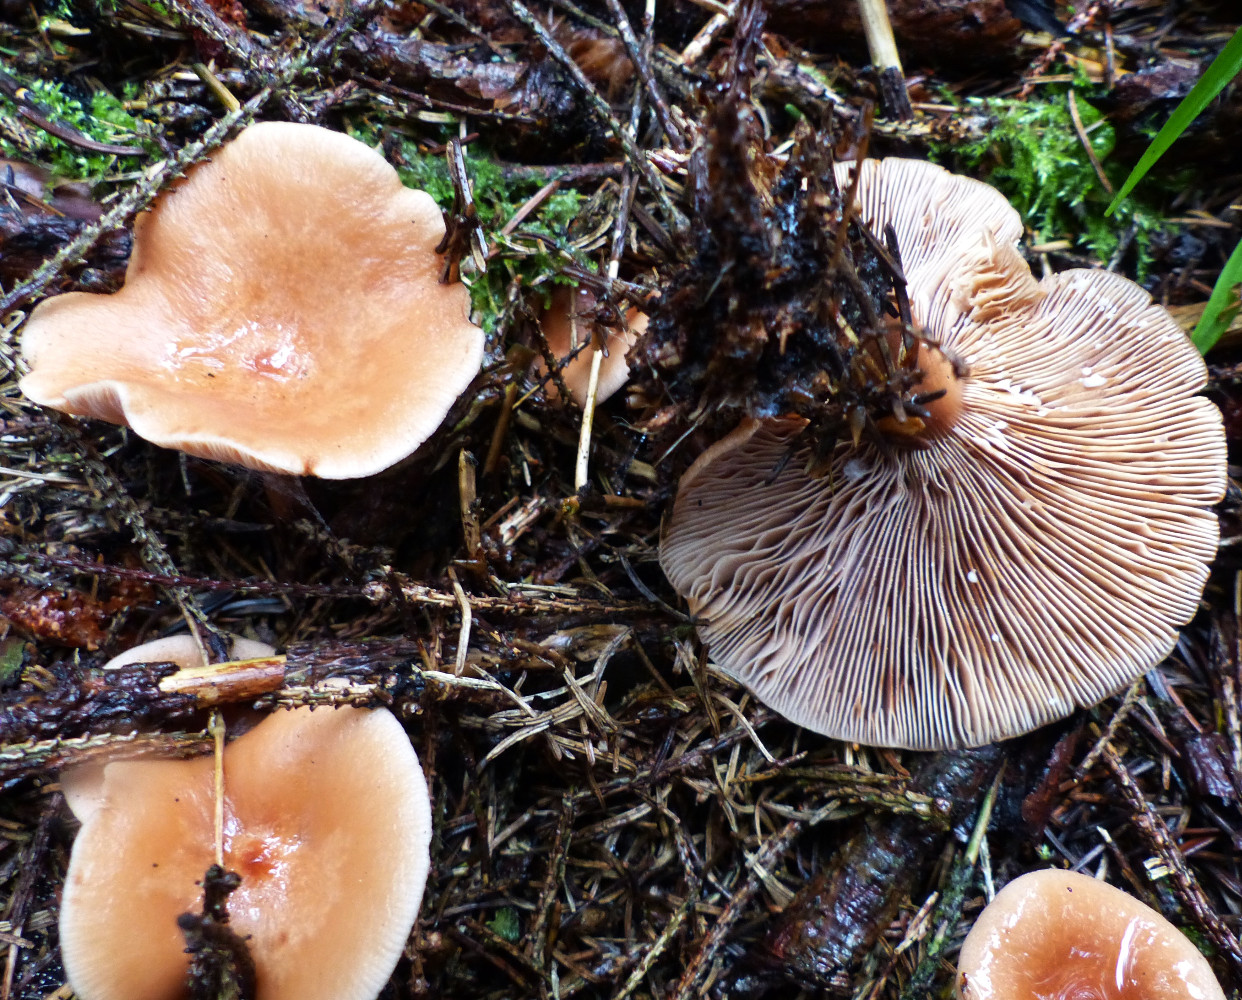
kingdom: Fungi
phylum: Basidiomycota
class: Agaricomycetes
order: Russulales
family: Russulaceae
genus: Lactarius
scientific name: Lactarius tabidus
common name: rynket mælkehat
